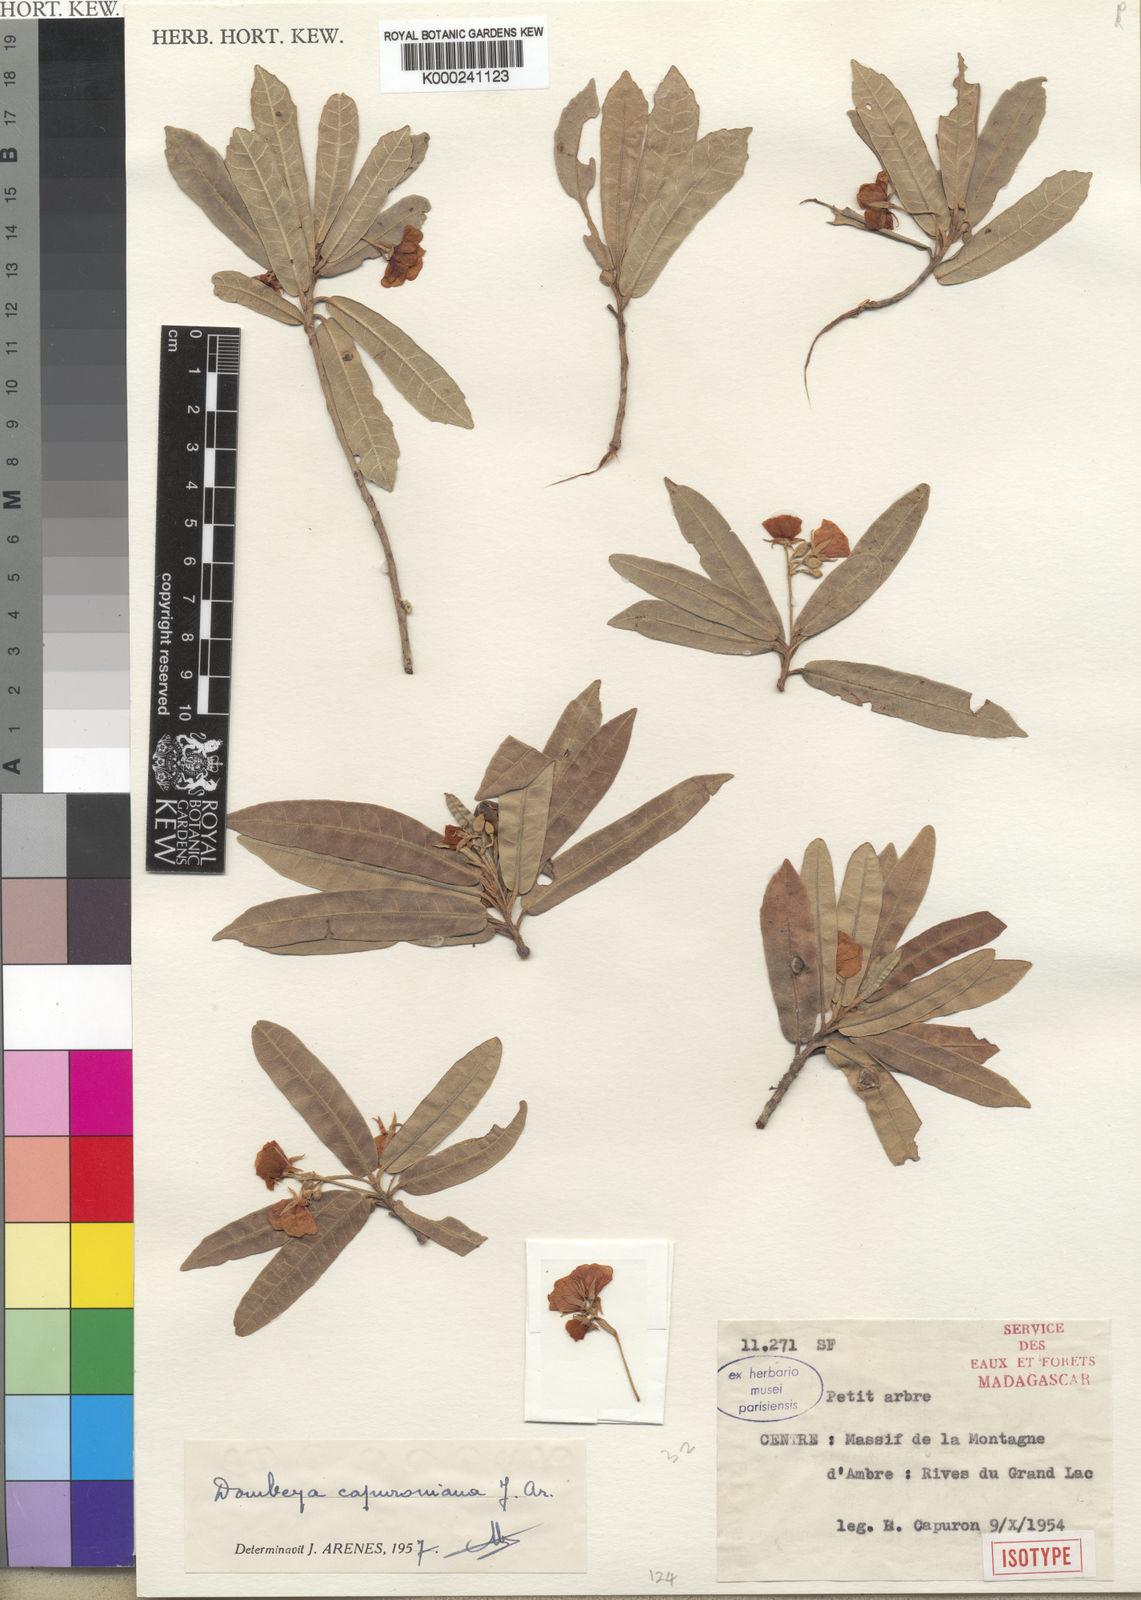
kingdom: Plantae
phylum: Tracheophyta
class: Magnoliopsida
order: Malvales
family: Malvaceae
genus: Dombeya
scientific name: Dombeya capuroniana
